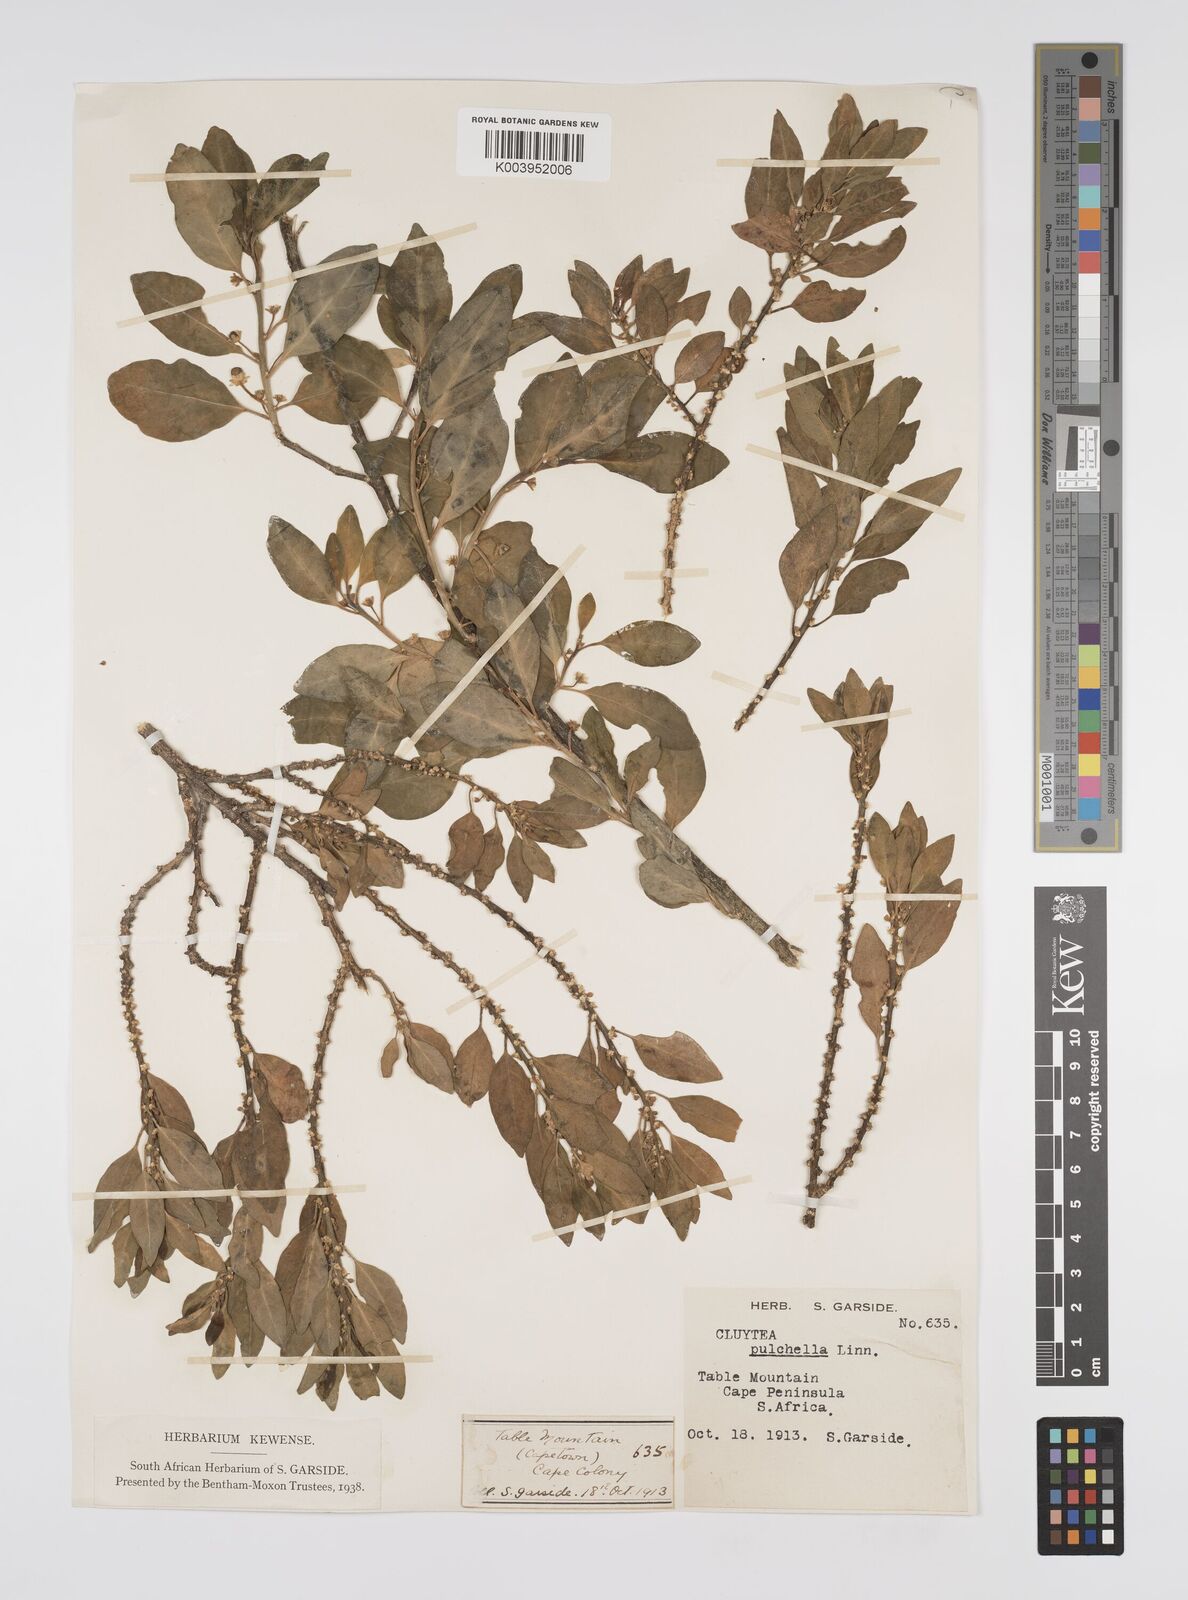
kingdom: Plantae
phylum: Tracheophyta
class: Magnoliopsida
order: Malpighiales
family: Peraceae
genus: Clutia
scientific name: Clutia pulchella
